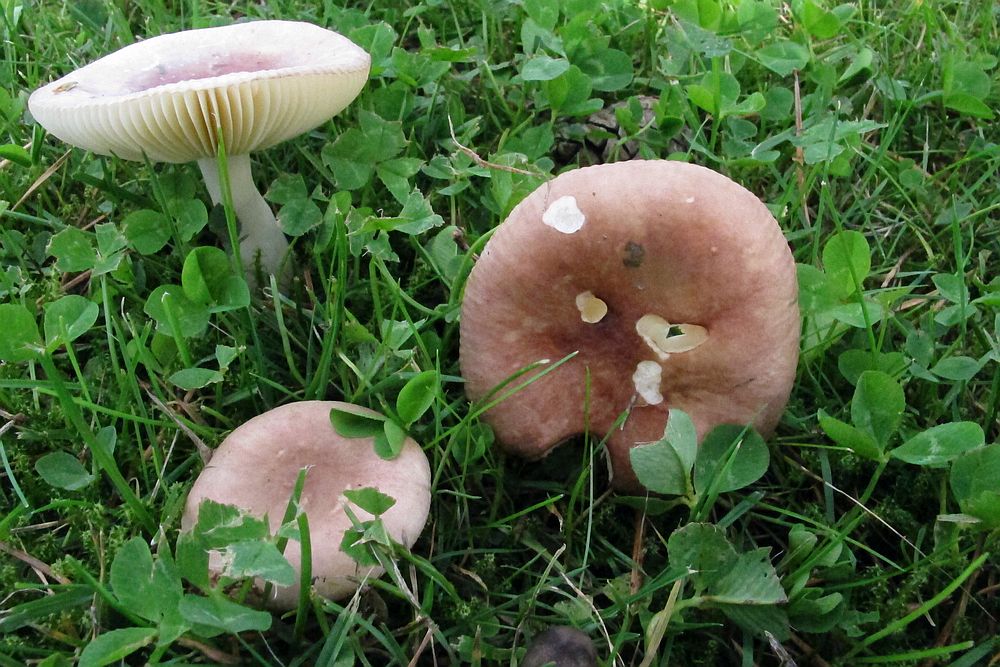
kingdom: Fungi
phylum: Basidiomycota
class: Agaricomycetes
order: Russulales
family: Russulaceae
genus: Russula
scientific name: Russula cessans
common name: fyrre-skørhat
